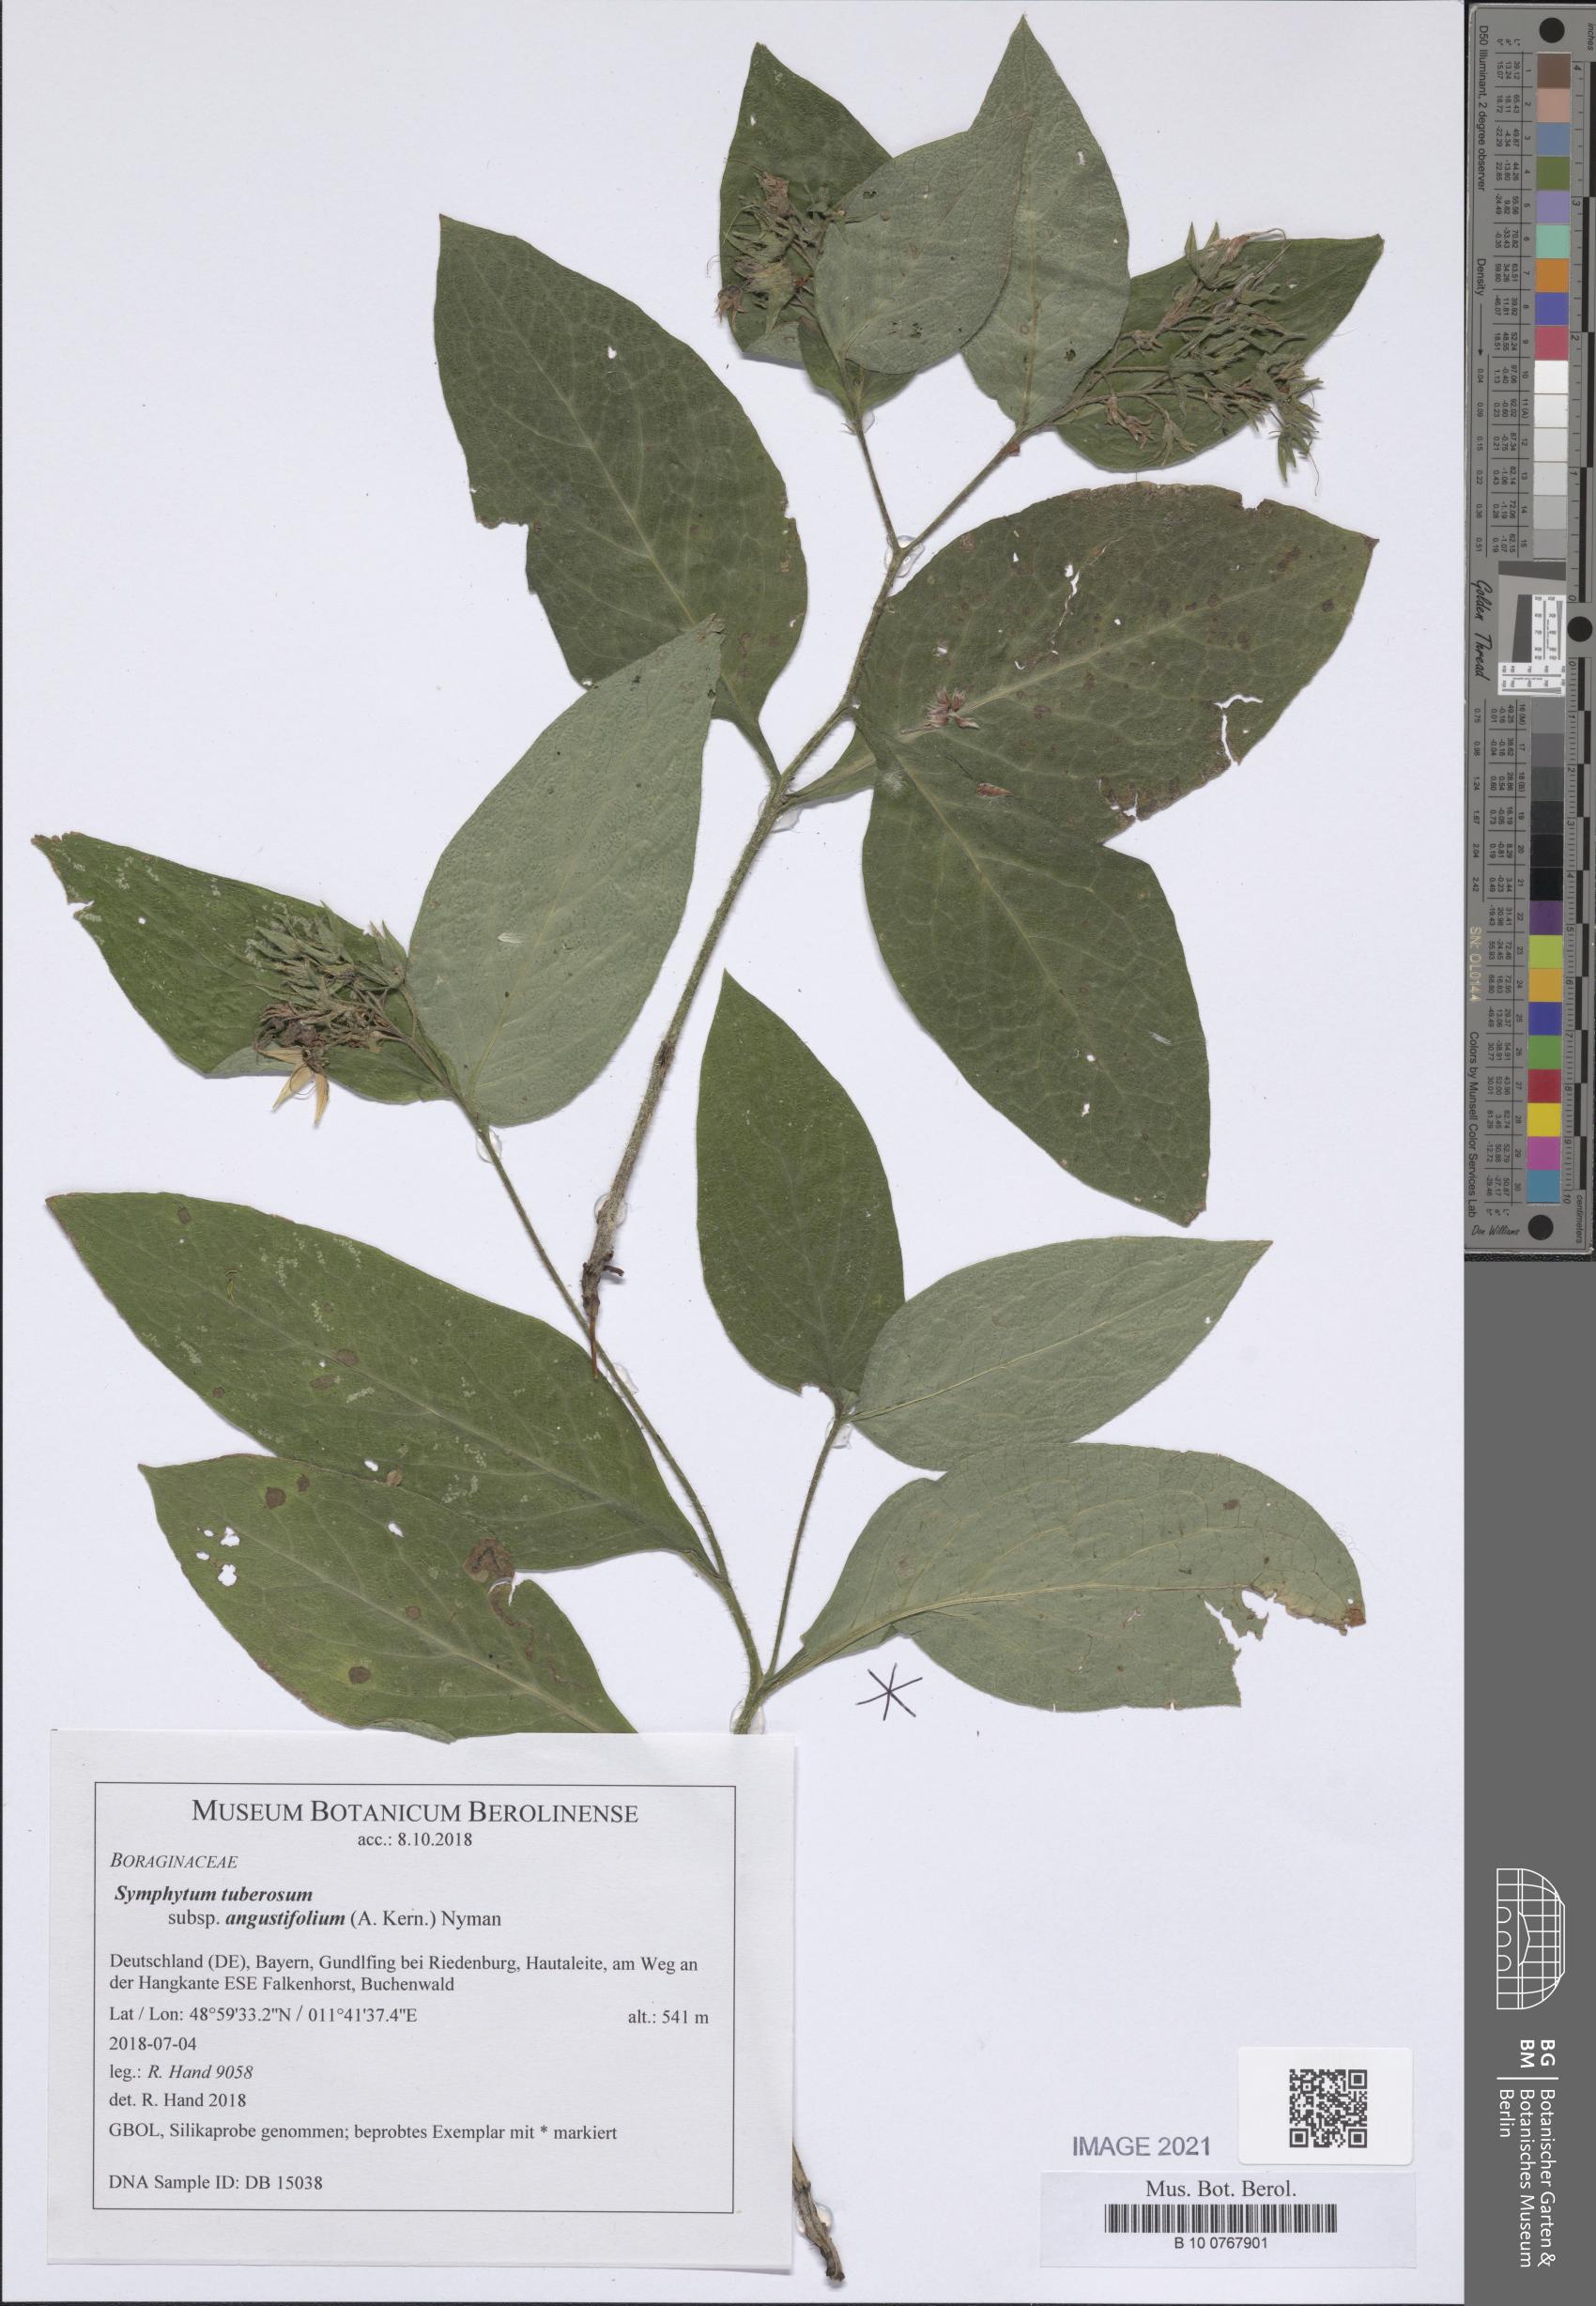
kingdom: Plantae
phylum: Tracheophyta
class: Magnoliopsida
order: Boraginales
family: Boraginaceae
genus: Symphytum
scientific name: Symphytum tuberosum
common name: Tuberous comfrey
